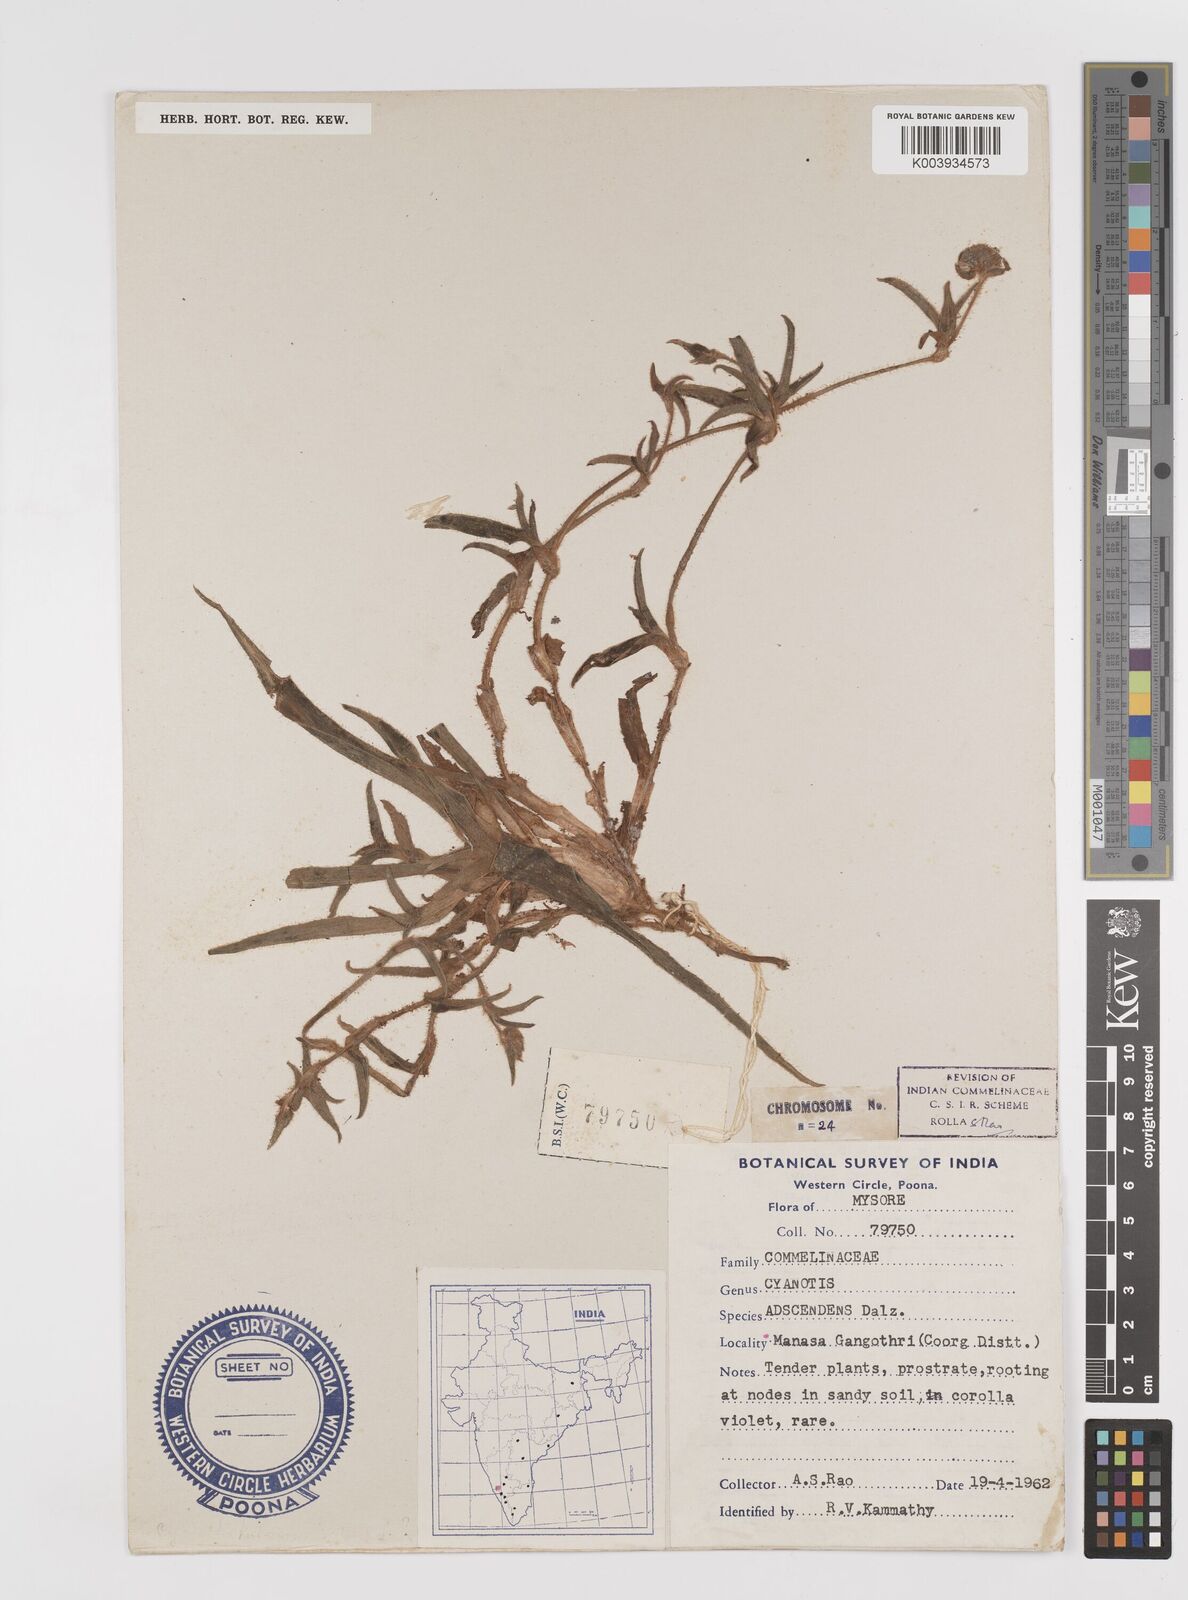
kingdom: Plantae
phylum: Tracheophyta
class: Liliopsida
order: Commelinales
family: Commelinaceae
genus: Cyanotis
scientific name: Cyanotis tuberosa
